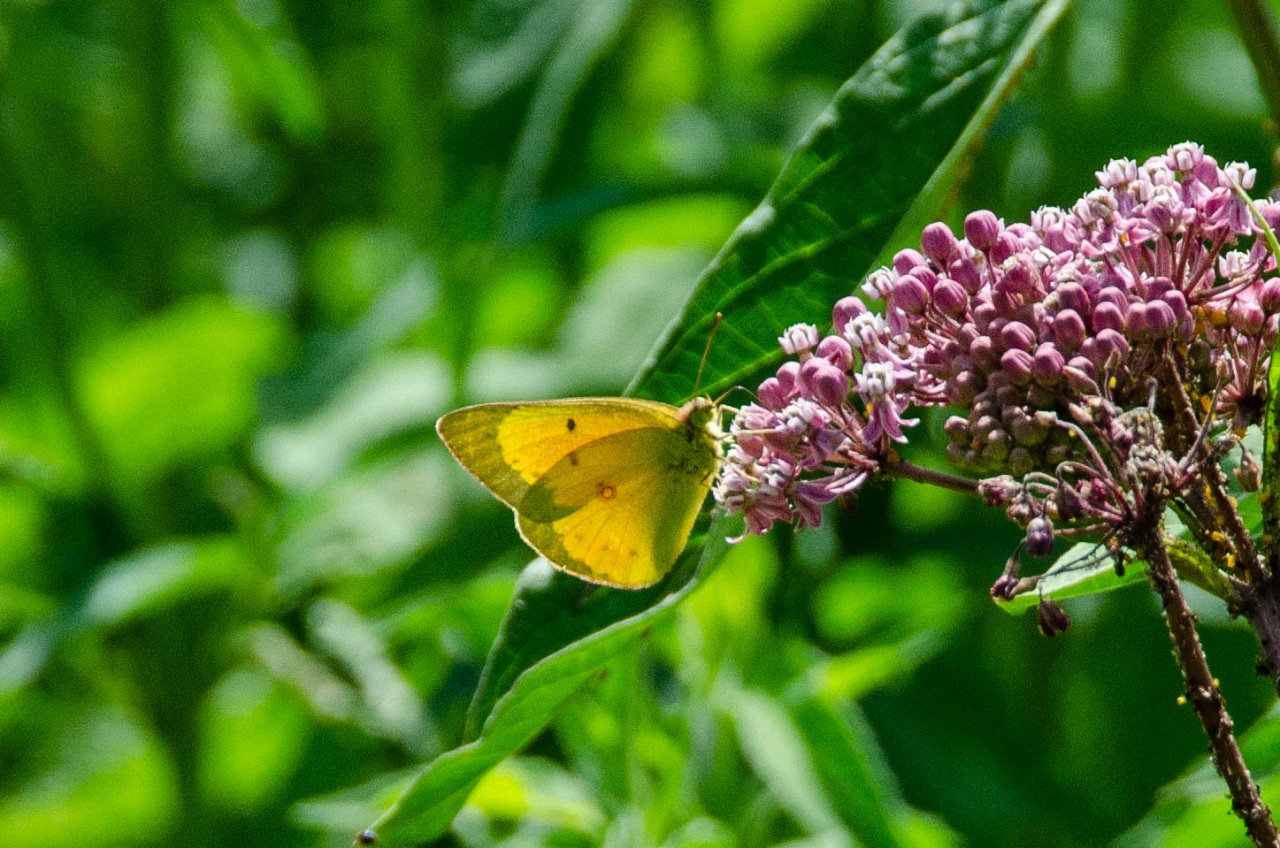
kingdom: Animalia
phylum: Arthropoda
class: Insecta
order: Lepidoptera
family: Pieridae
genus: Colias
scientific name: Colias philodice
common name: Clouded Sulphur
